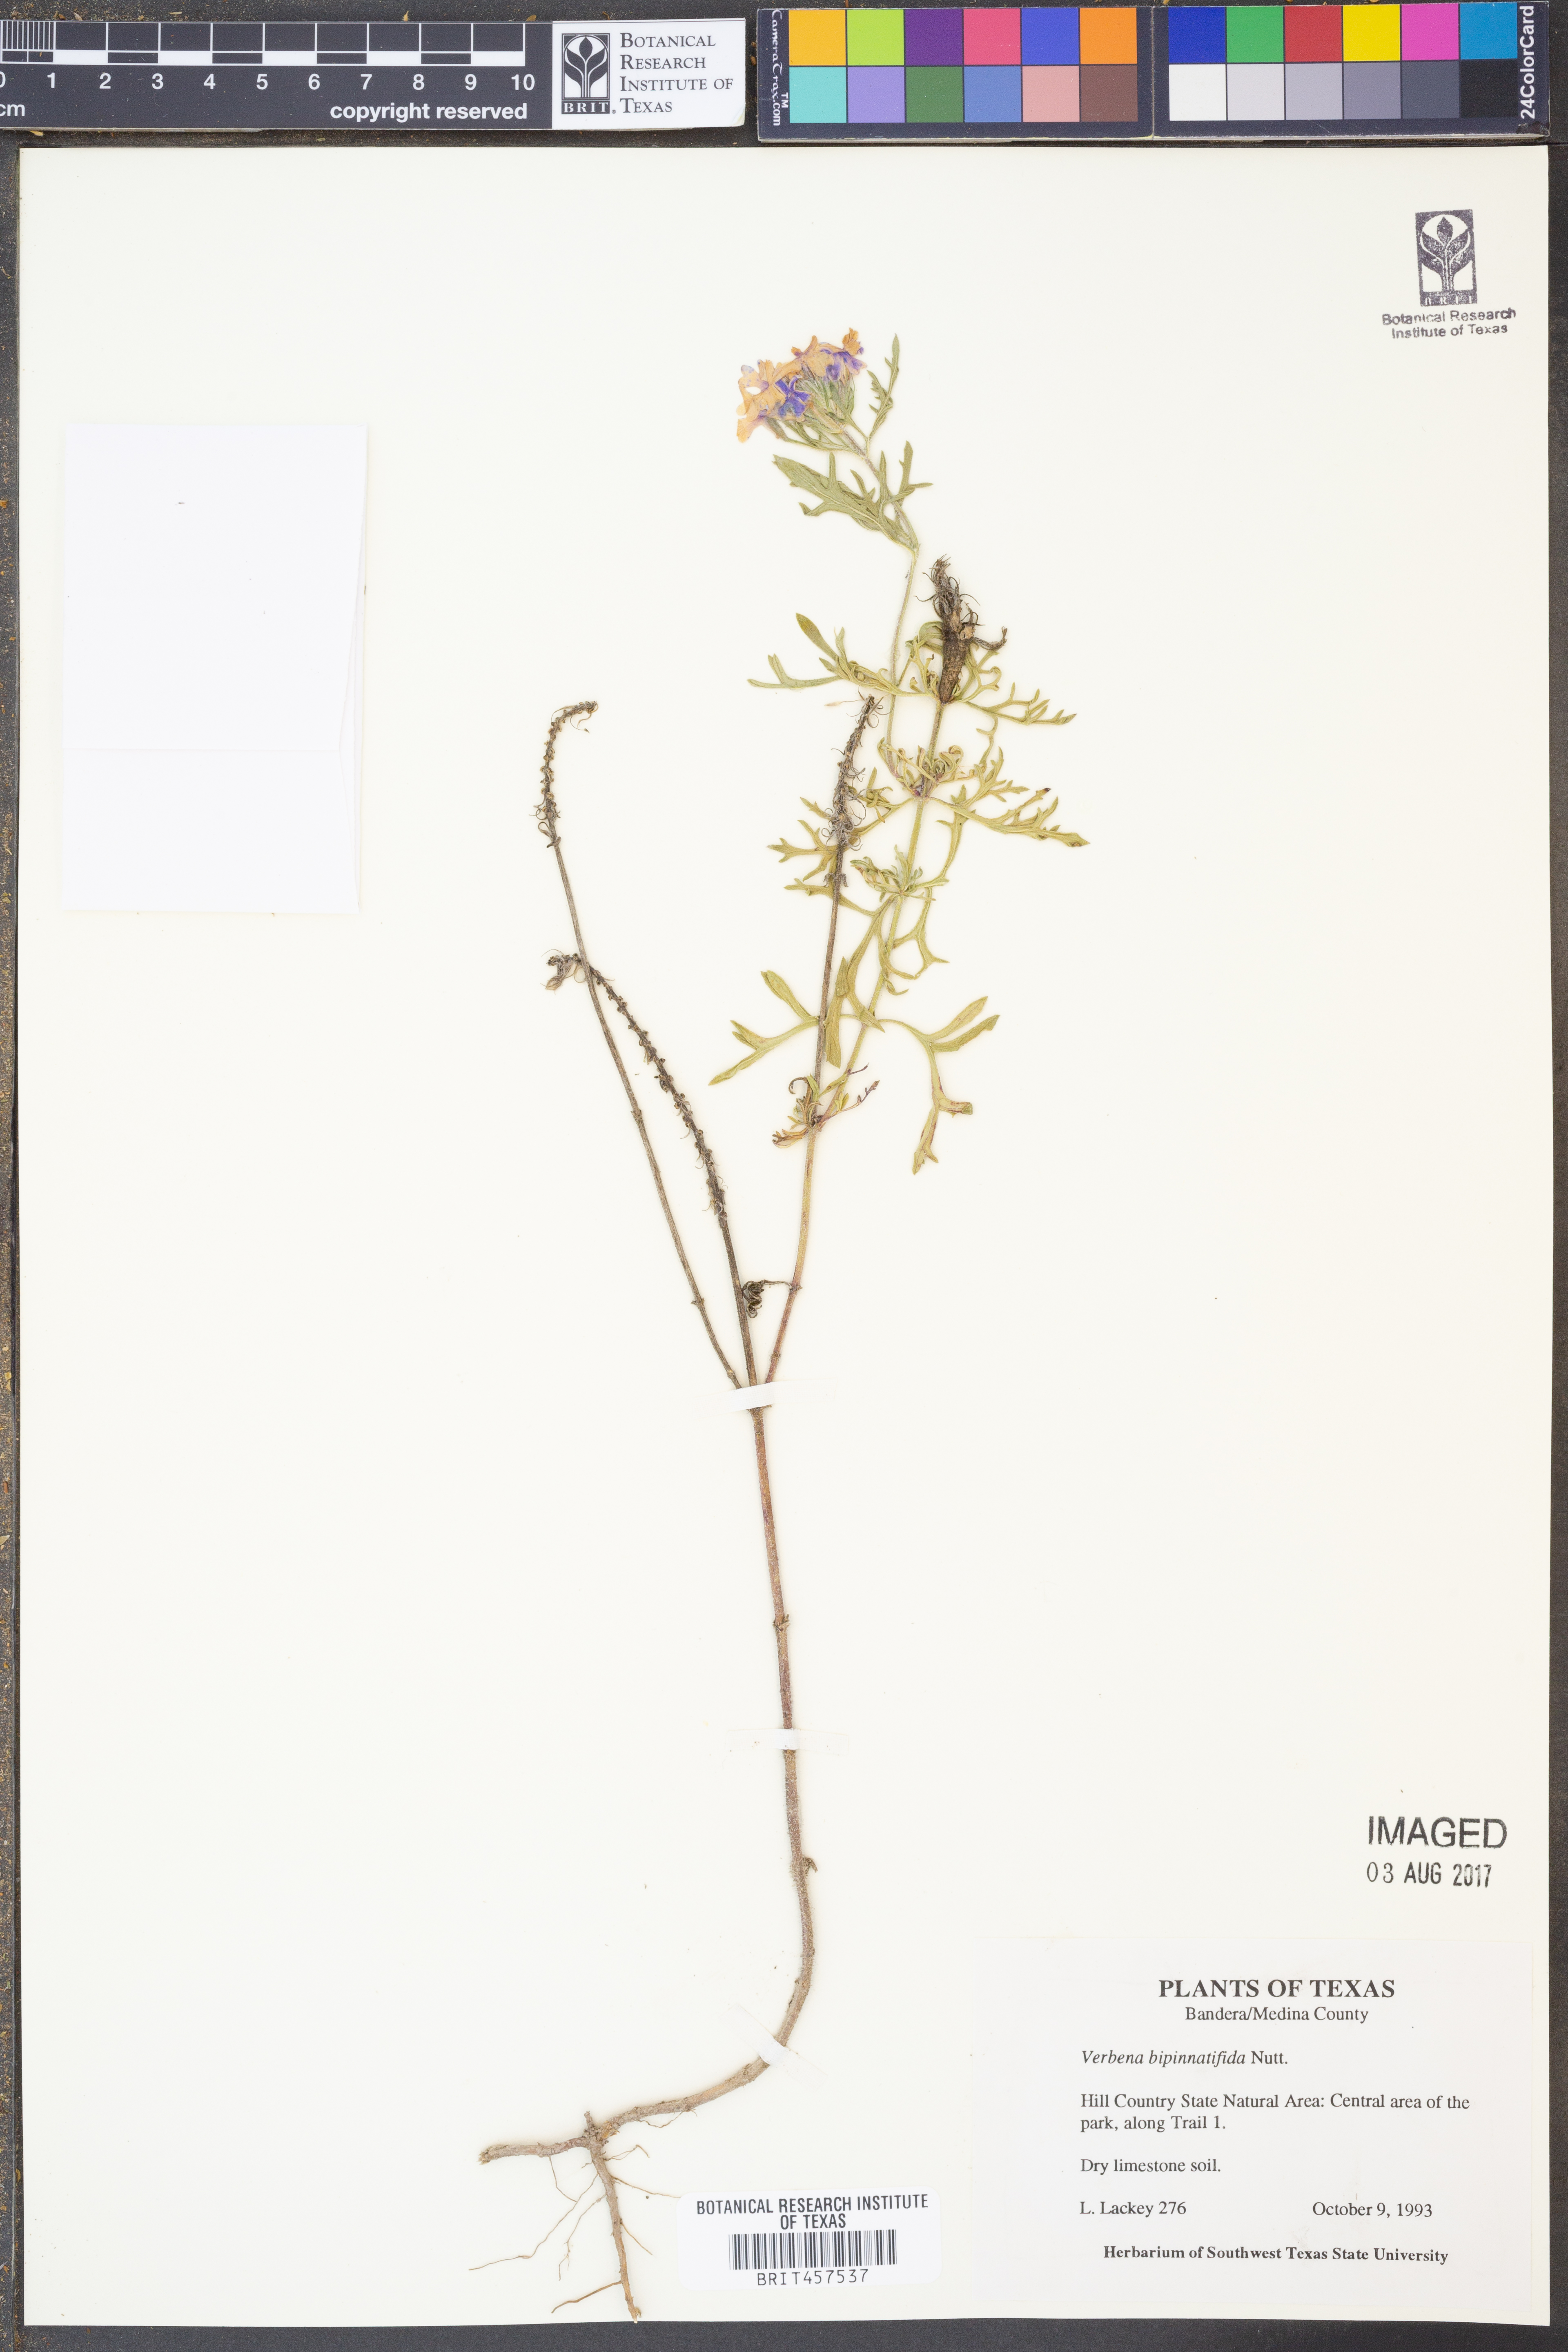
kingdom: Plantae
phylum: Tracheophyta
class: Magnoliopsida
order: Lamiales
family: Verbenaceae
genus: Verbena
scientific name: Verbena bipinnatifida
